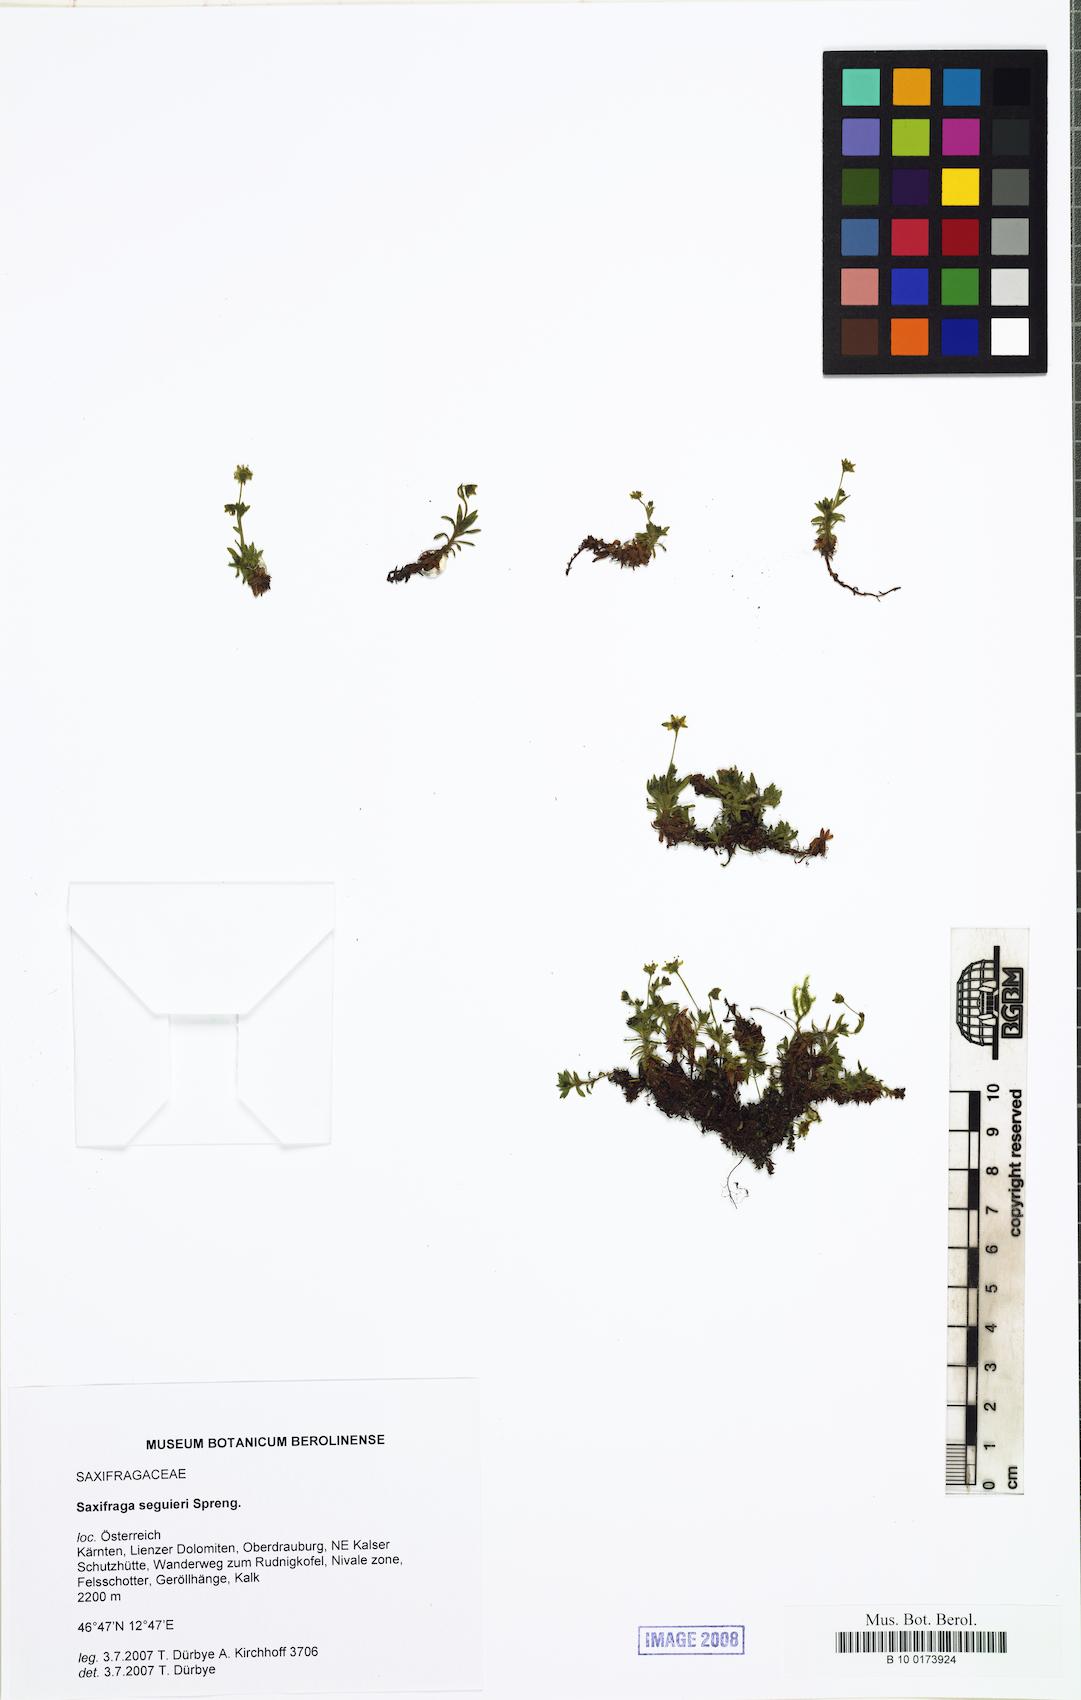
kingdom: Plantae
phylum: Tracheophyta
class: Magnoliopsida
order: Saxifragales
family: Saxifragaceae
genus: Saxifraga
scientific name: Saxifraga seguieri
